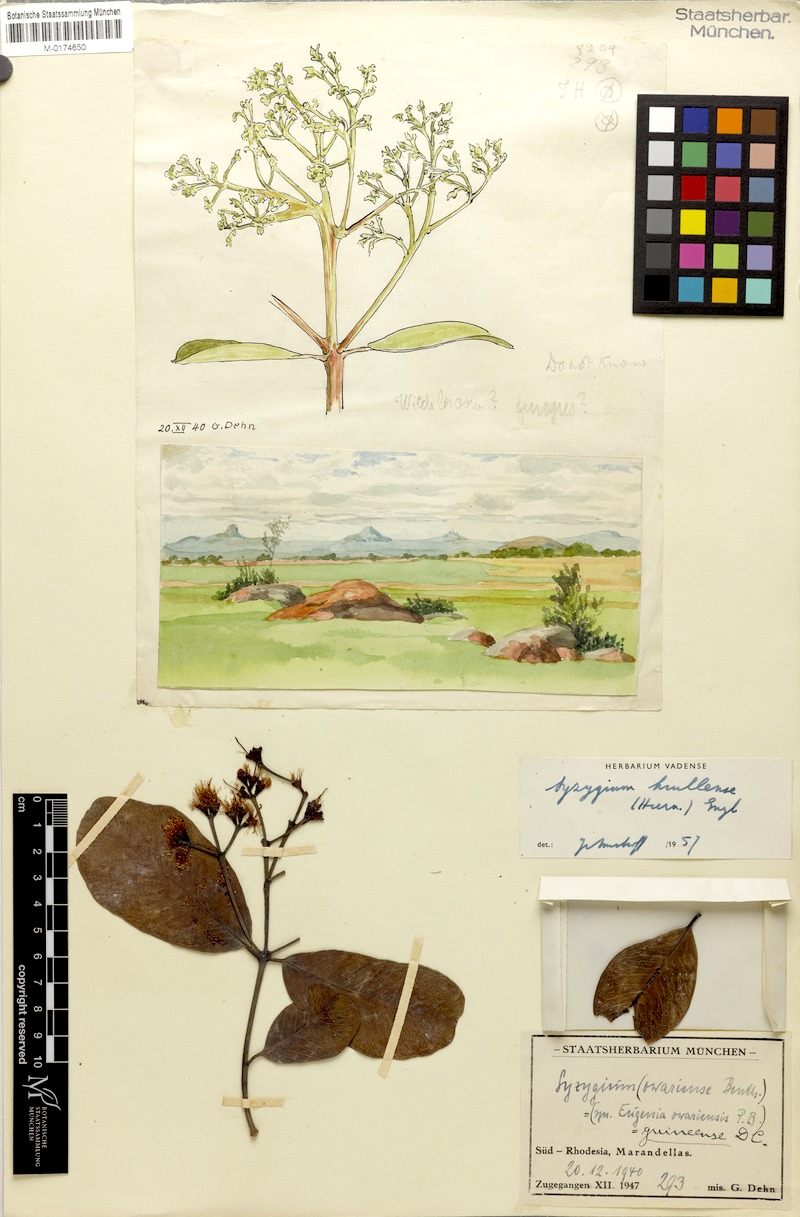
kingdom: Plantae
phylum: Tracheophyta
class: Magnoliopsida
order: Myrtales
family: Myrtaceae
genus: Syzygium
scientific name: Syzygium guineense
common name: Water-pear
